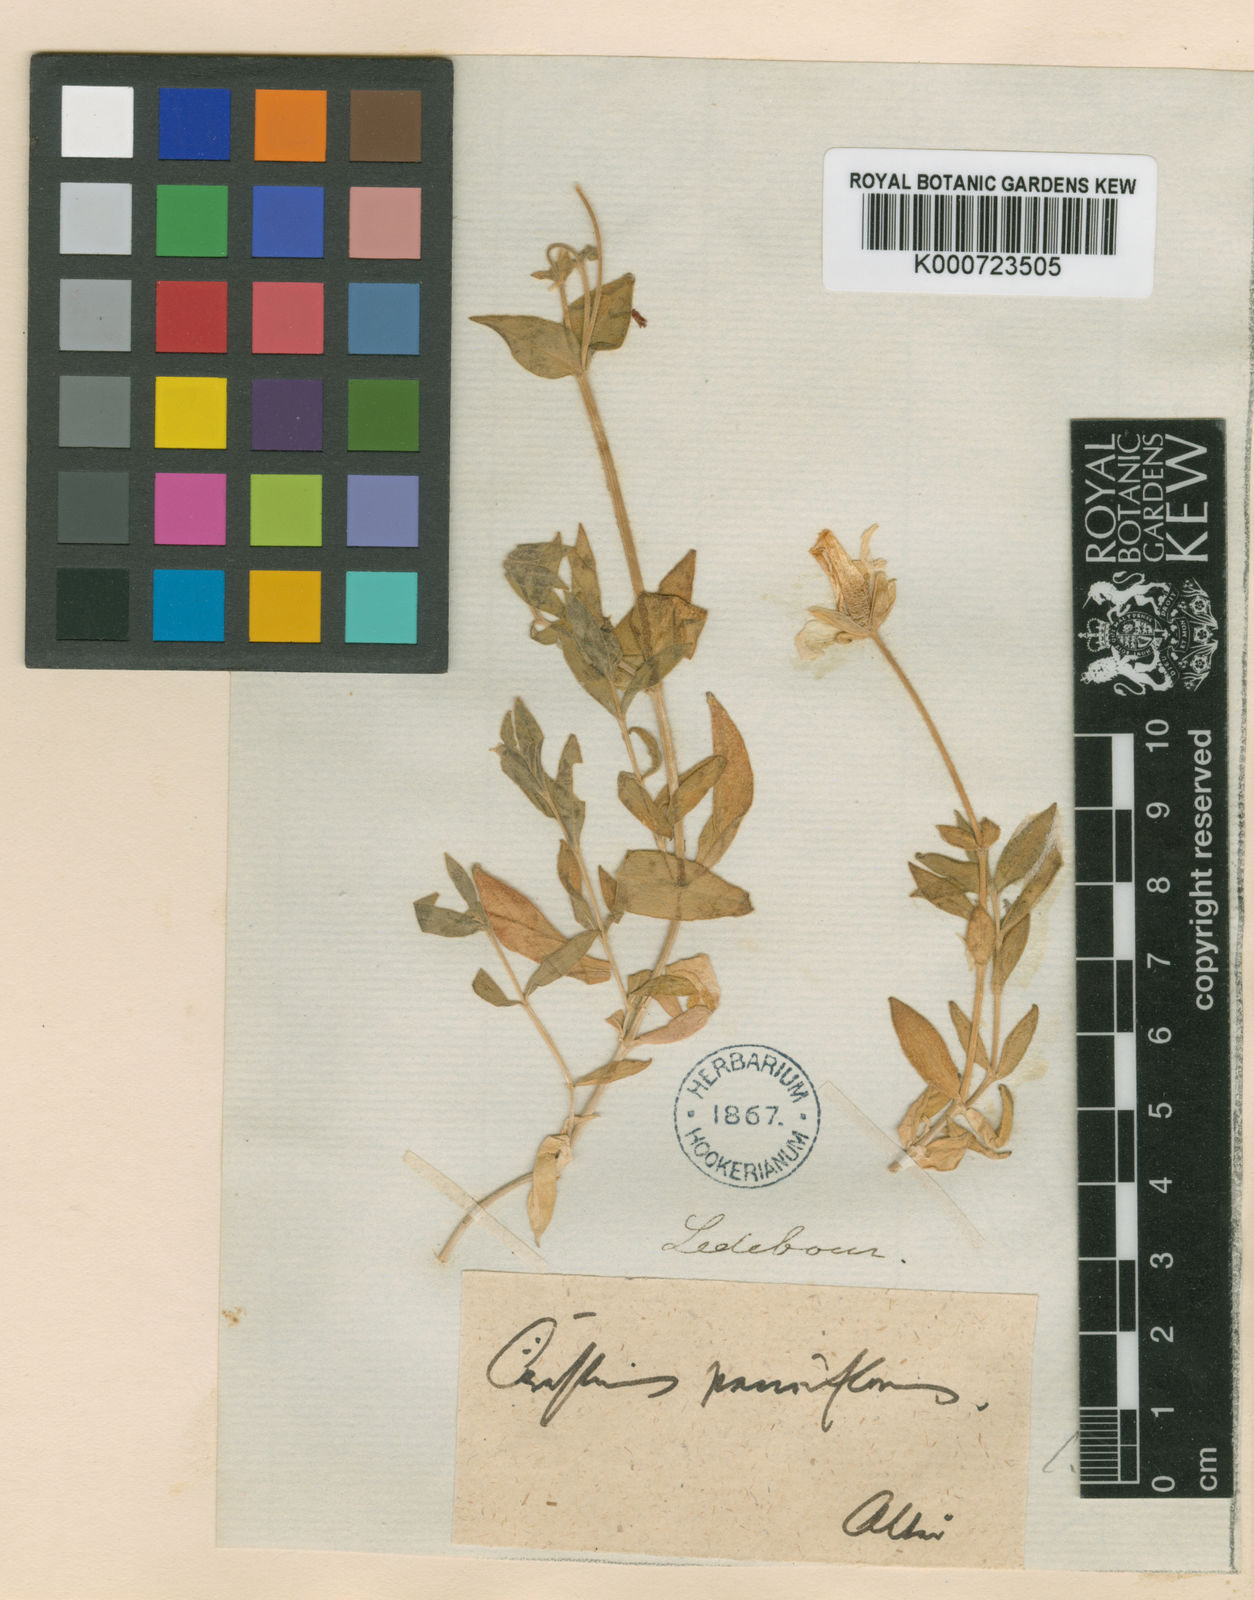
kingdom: Plantae
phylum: Tracheophyta
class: Magnoliopsida
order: Caryophyllales
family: Caryophyllaceae
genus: Cerastium
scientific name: Cerastium lithospermifolium
